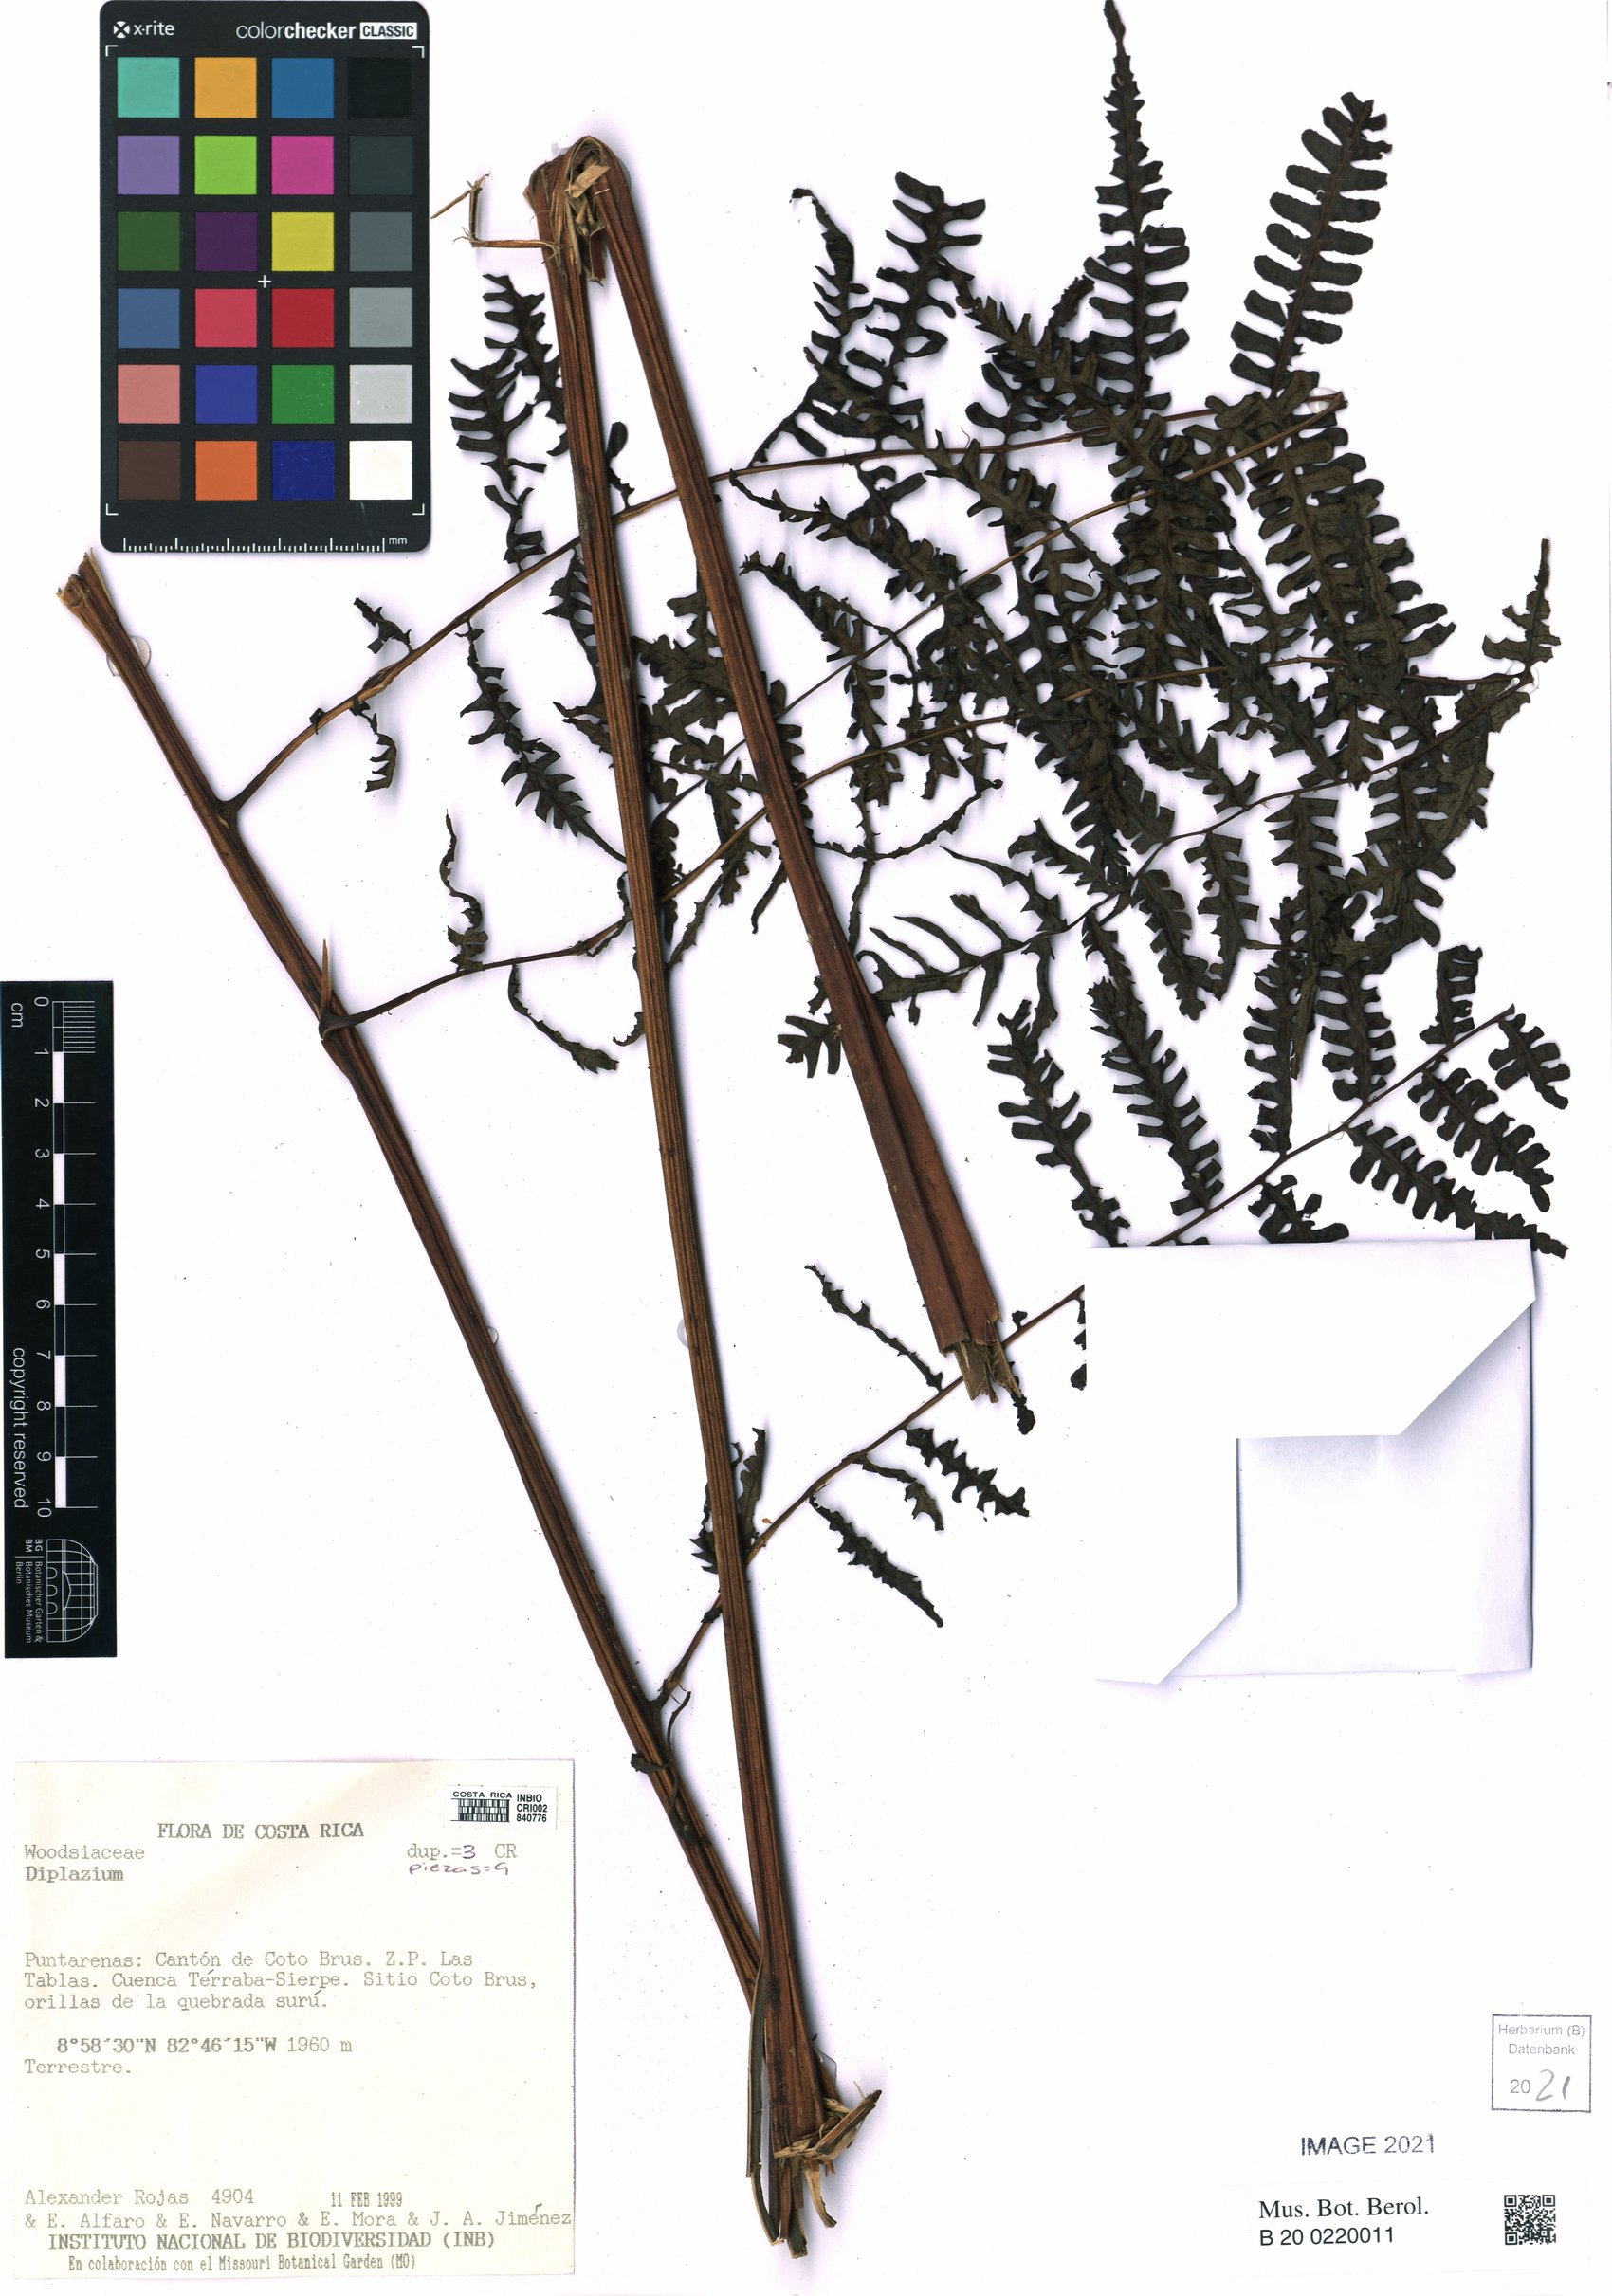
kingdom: Plantae
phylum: Tracheophyta
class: Polypodiopsida
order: Polypodiales
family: Athyriaceae
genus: Diplazium
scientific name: Diplazium
